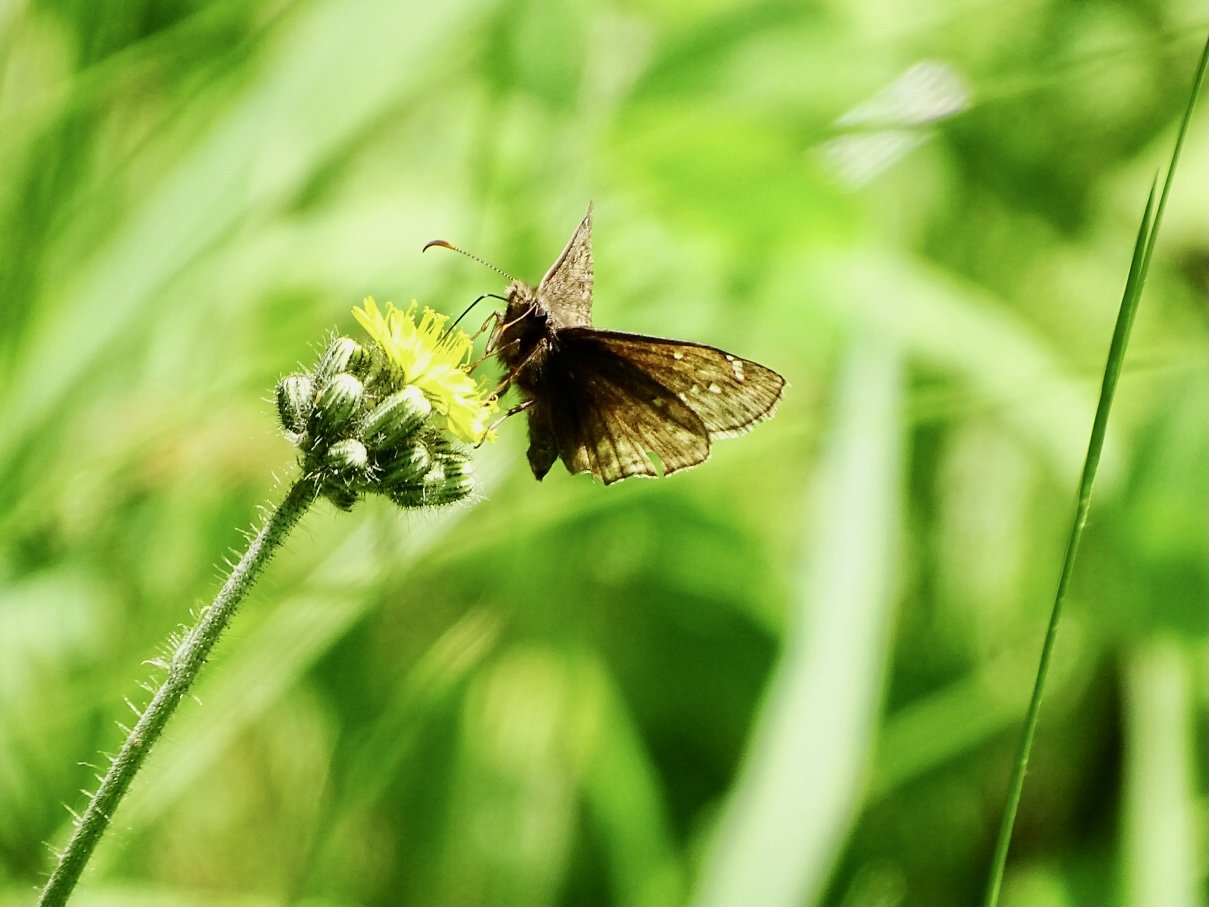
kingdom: Animalia
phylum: Arthropoda
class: Insecta
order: Lepidoptera
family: Hesperiidae
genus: Gesta
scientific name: Gesta
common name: Juvenal's Duskywing
